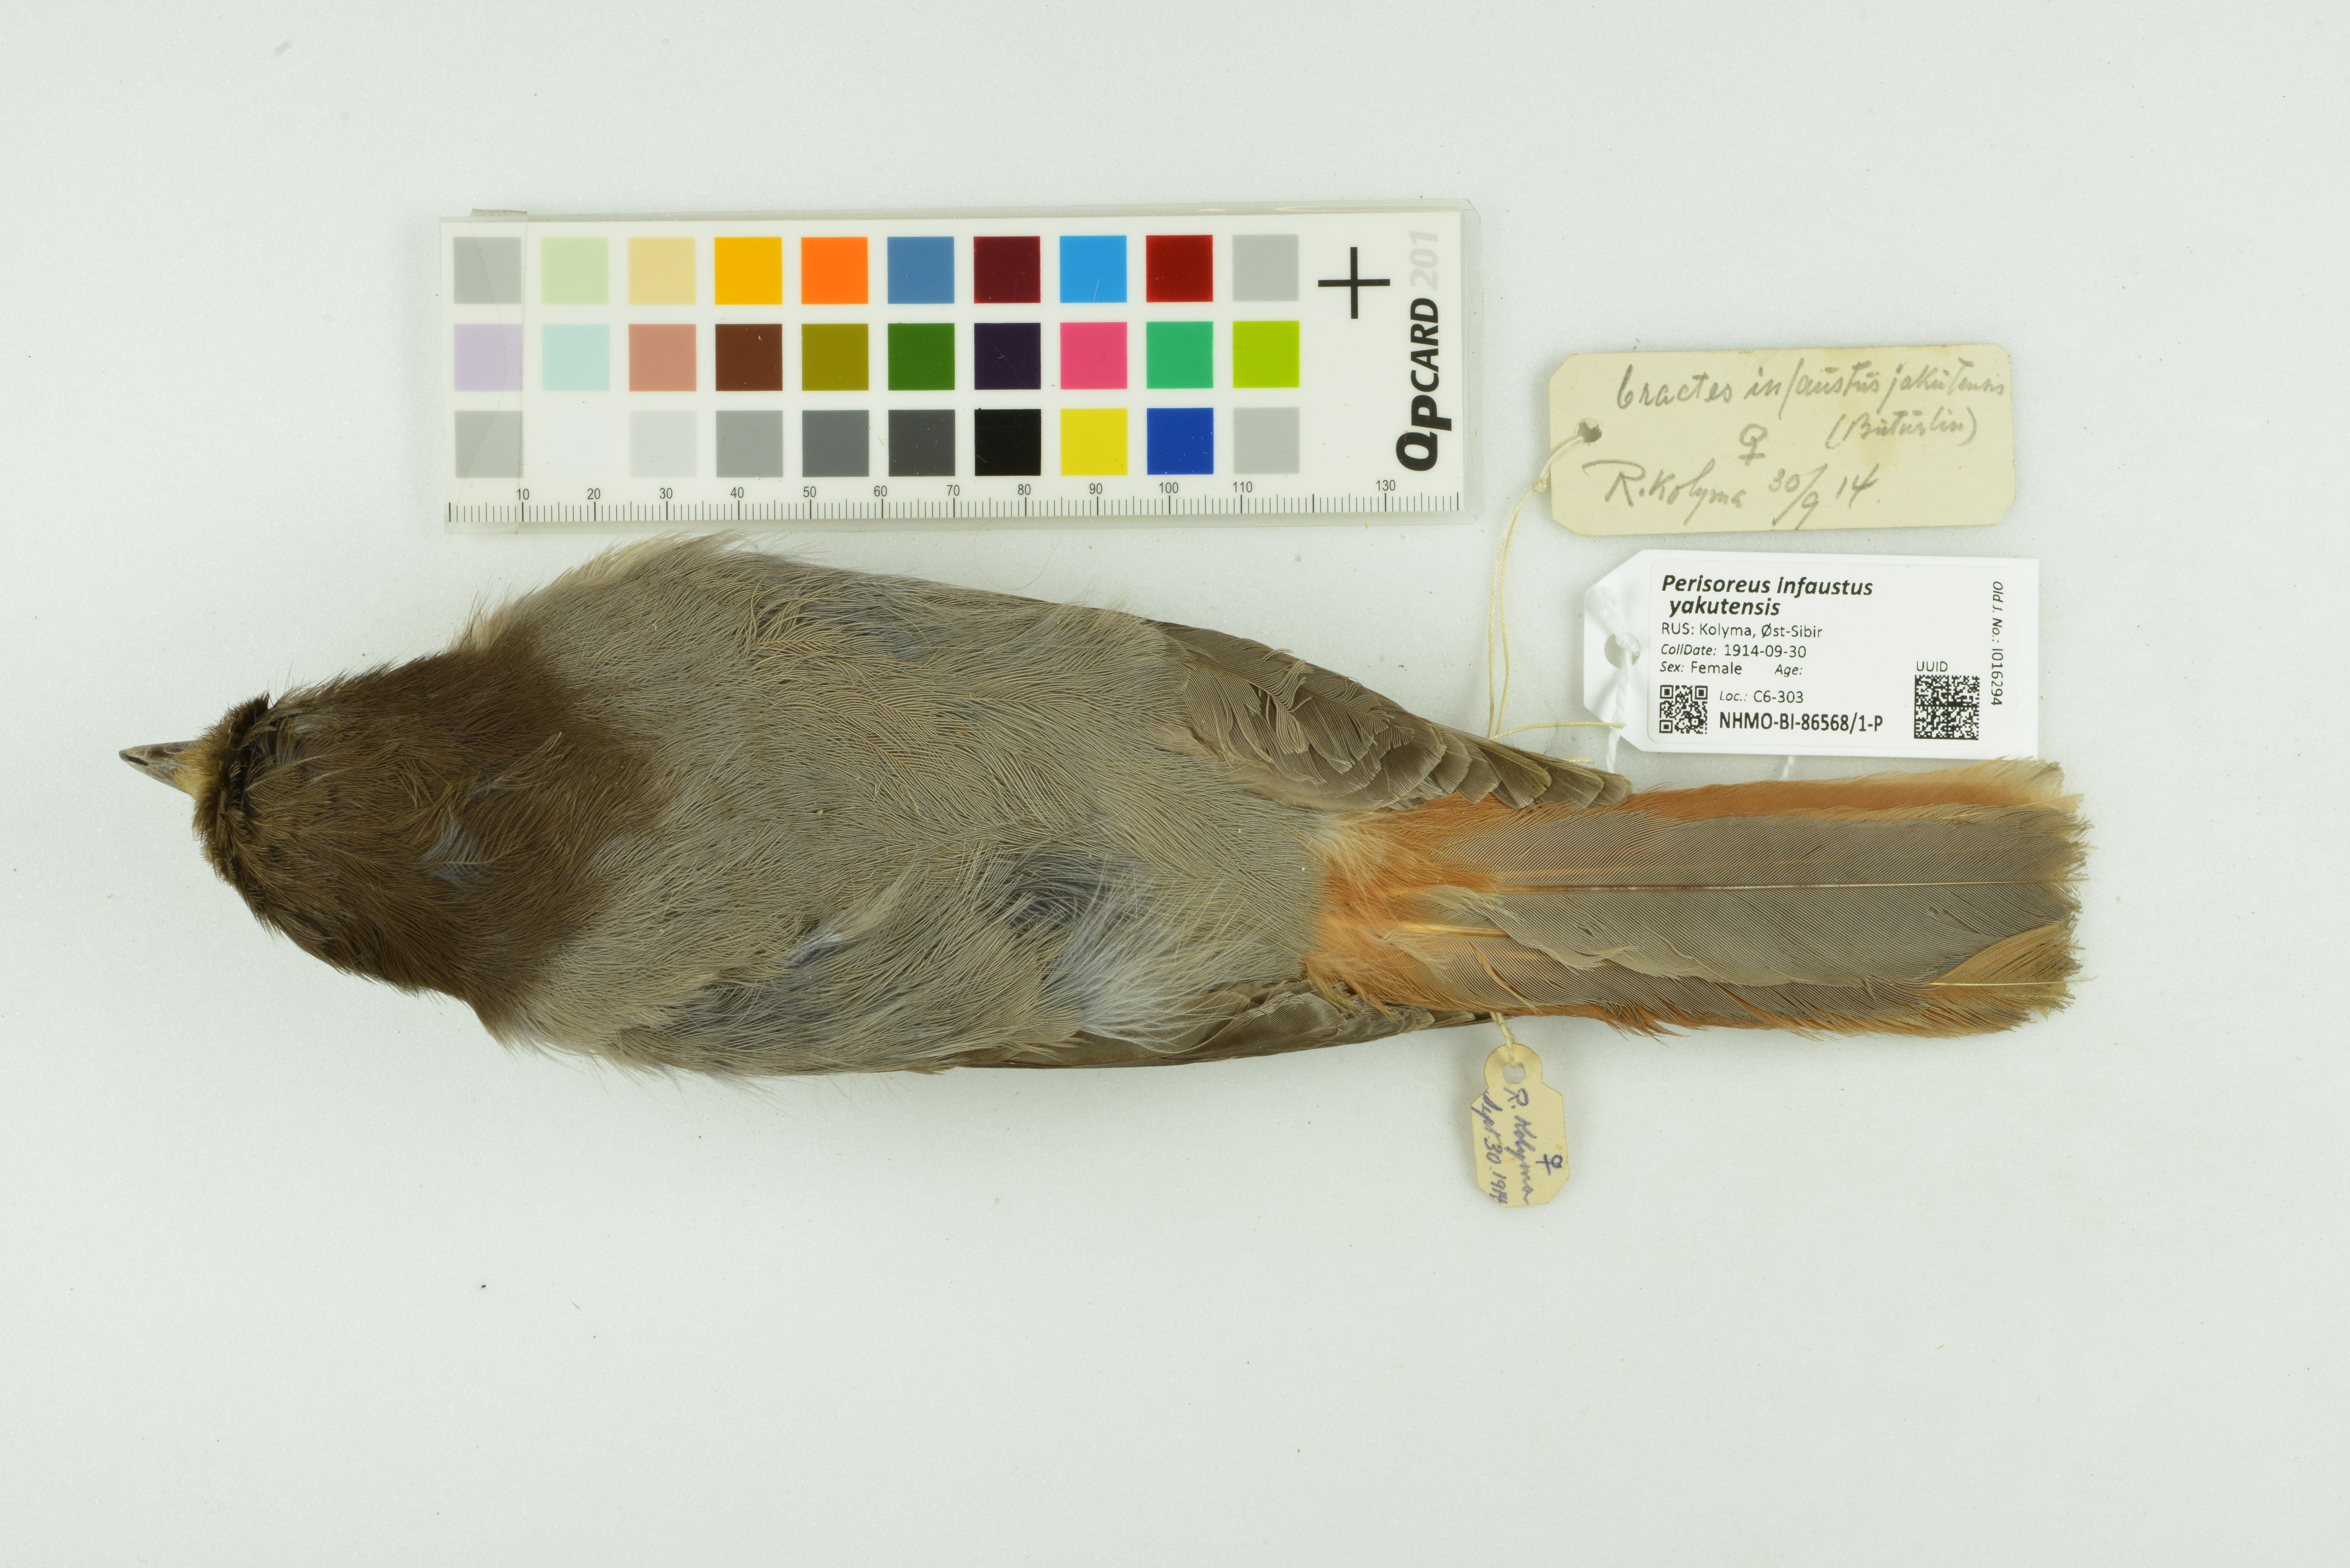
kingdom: Animalia
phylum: Chordata
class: Aves
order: Passeriformes
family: Corvidae
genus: Perisoreus
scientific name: Perisoreus infaustus
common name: Siberian jay
